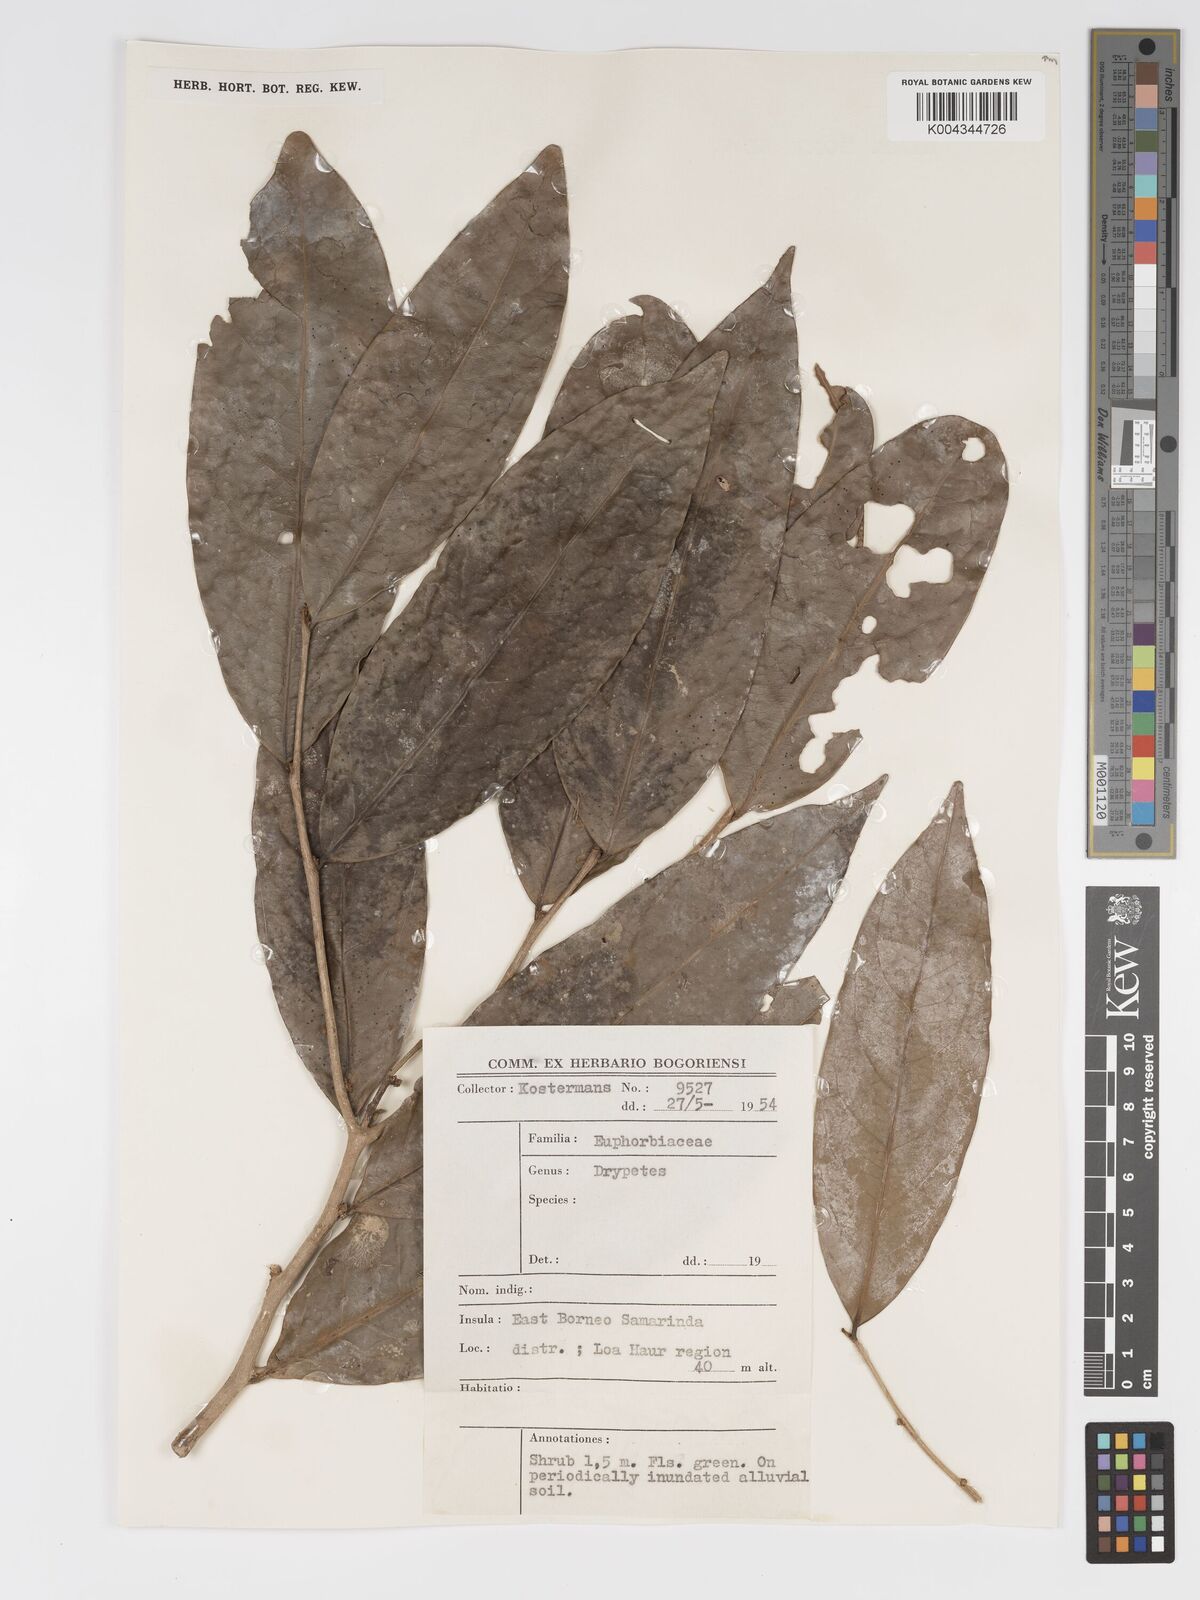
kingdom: Plantae
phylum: Tracheophyta
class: Magnoliopsida
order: Malpighiales
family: Putranjivaceae
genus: Drypetes
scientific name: Drypetes curtisii
